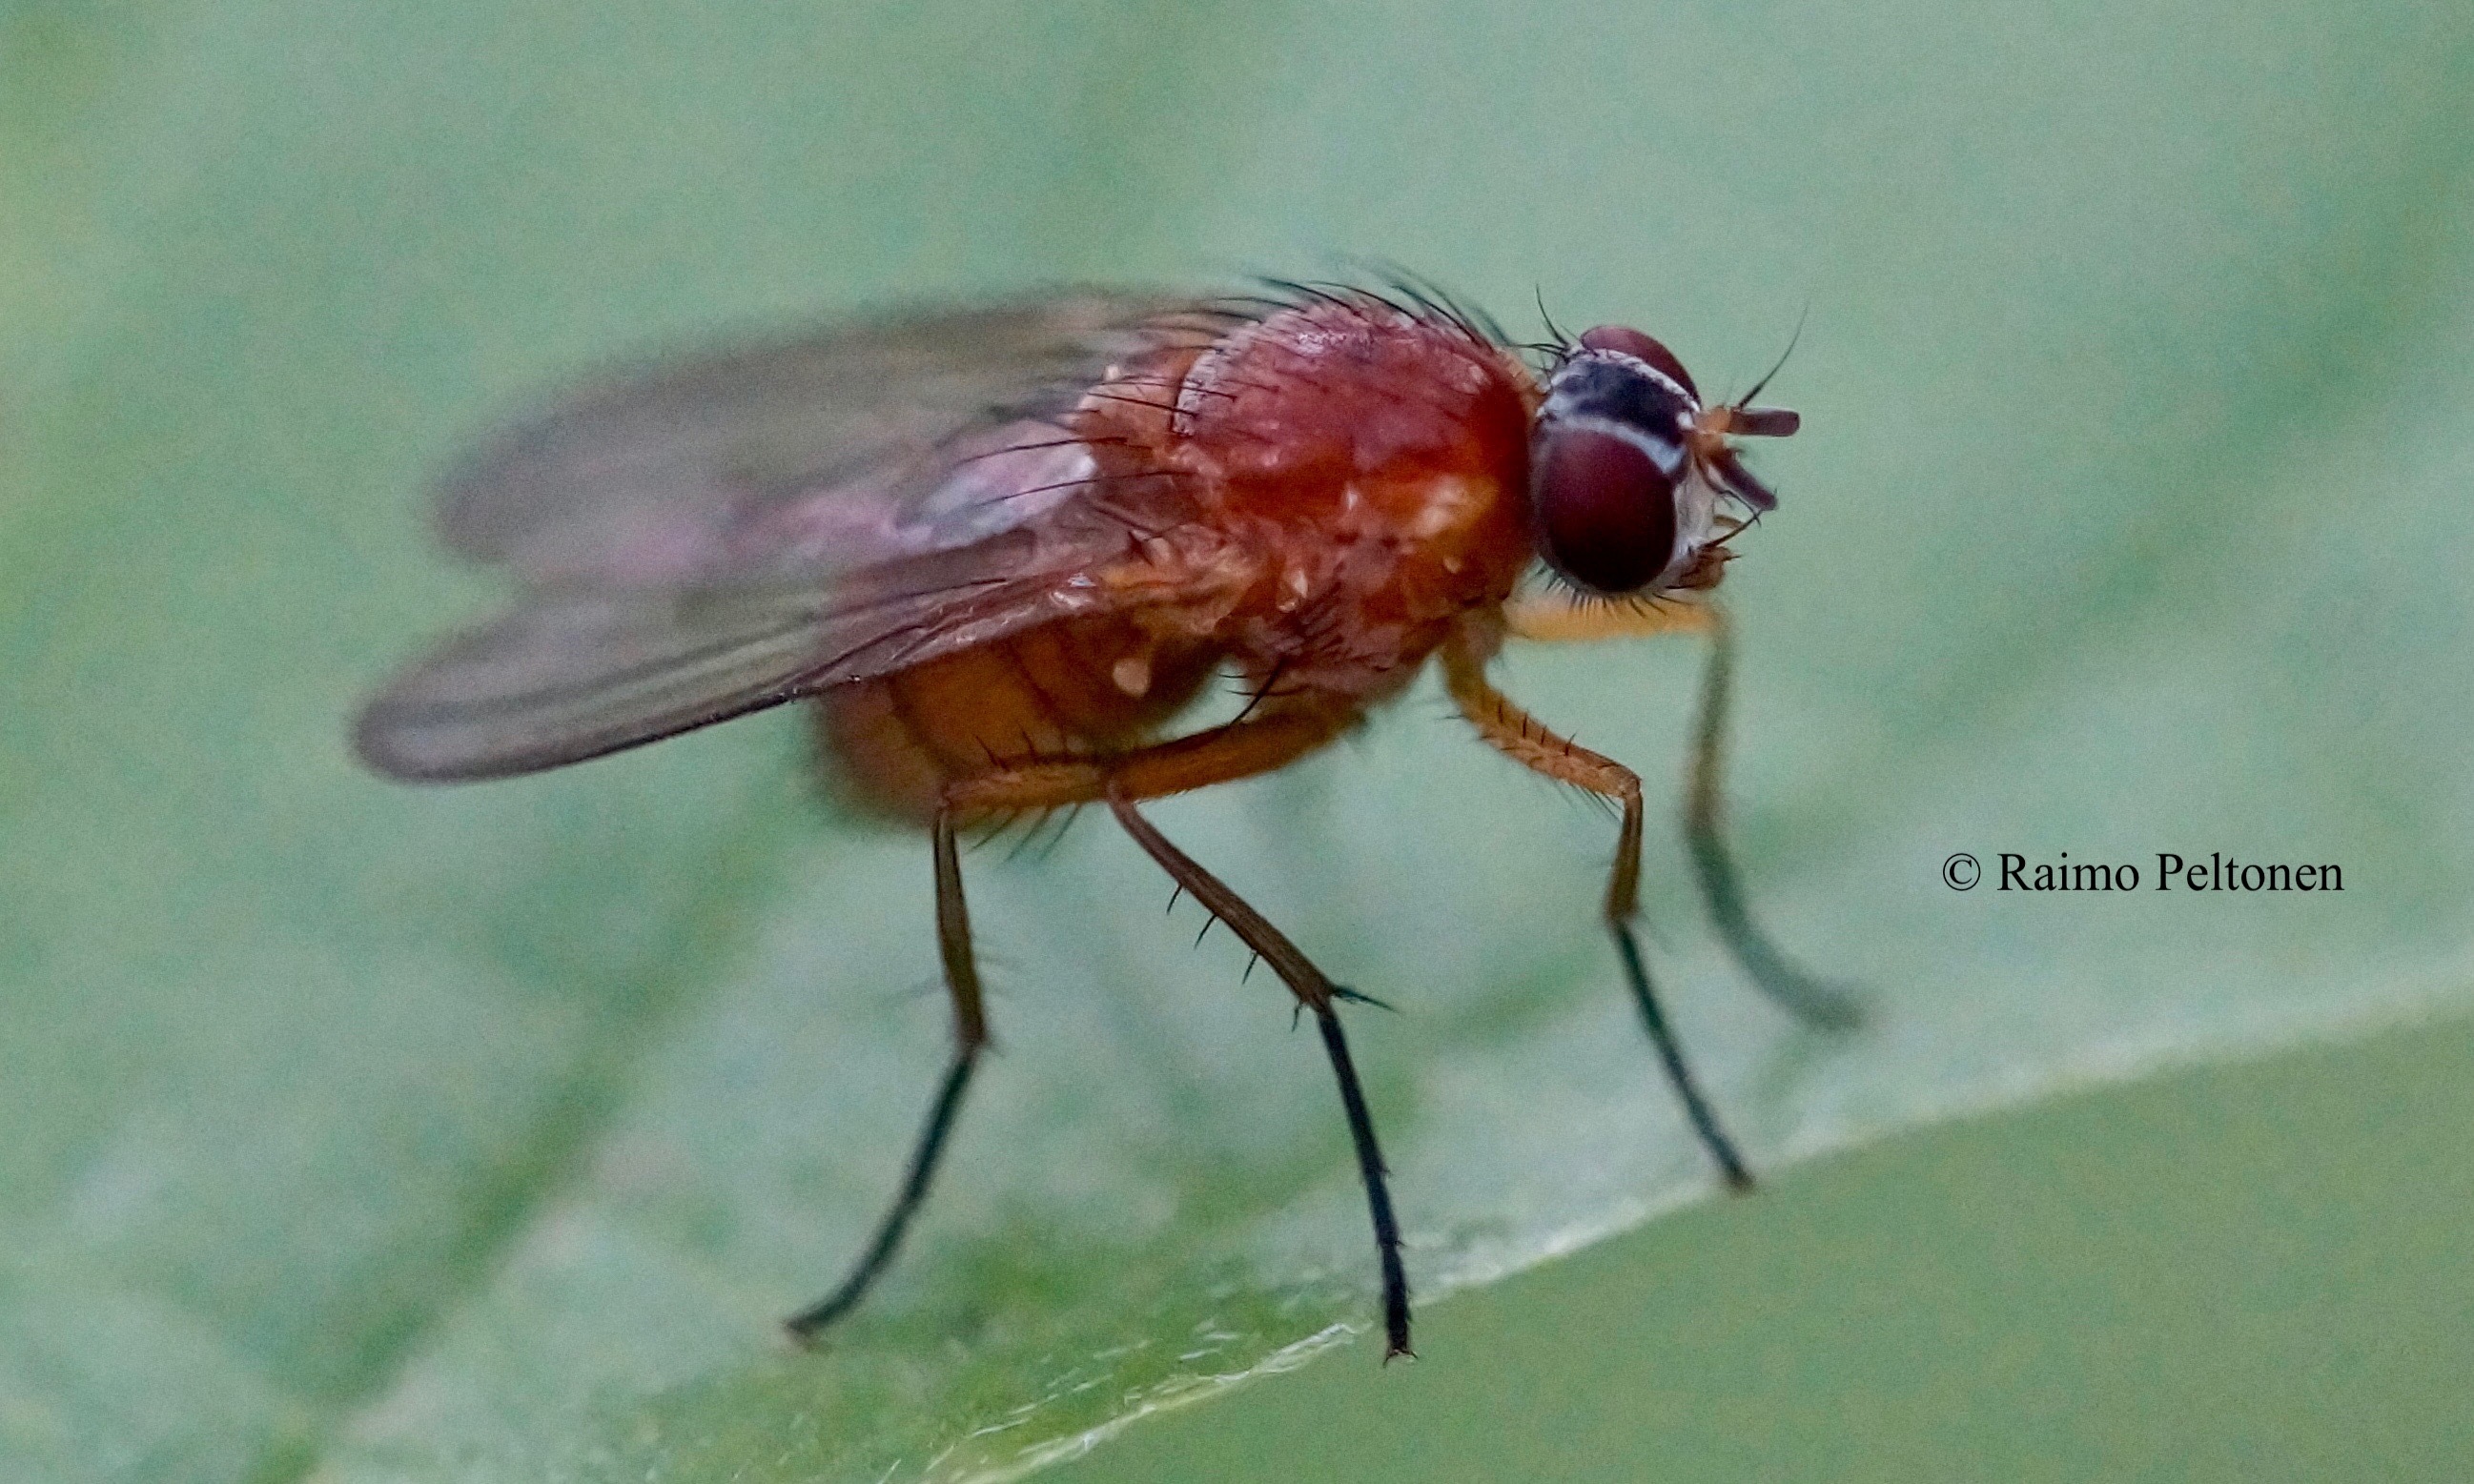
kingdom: Animalia
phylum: Arthropoda
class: Insecta
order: Diptera
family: Muscidae
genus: Thricops
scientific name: Thricops diaphanus
